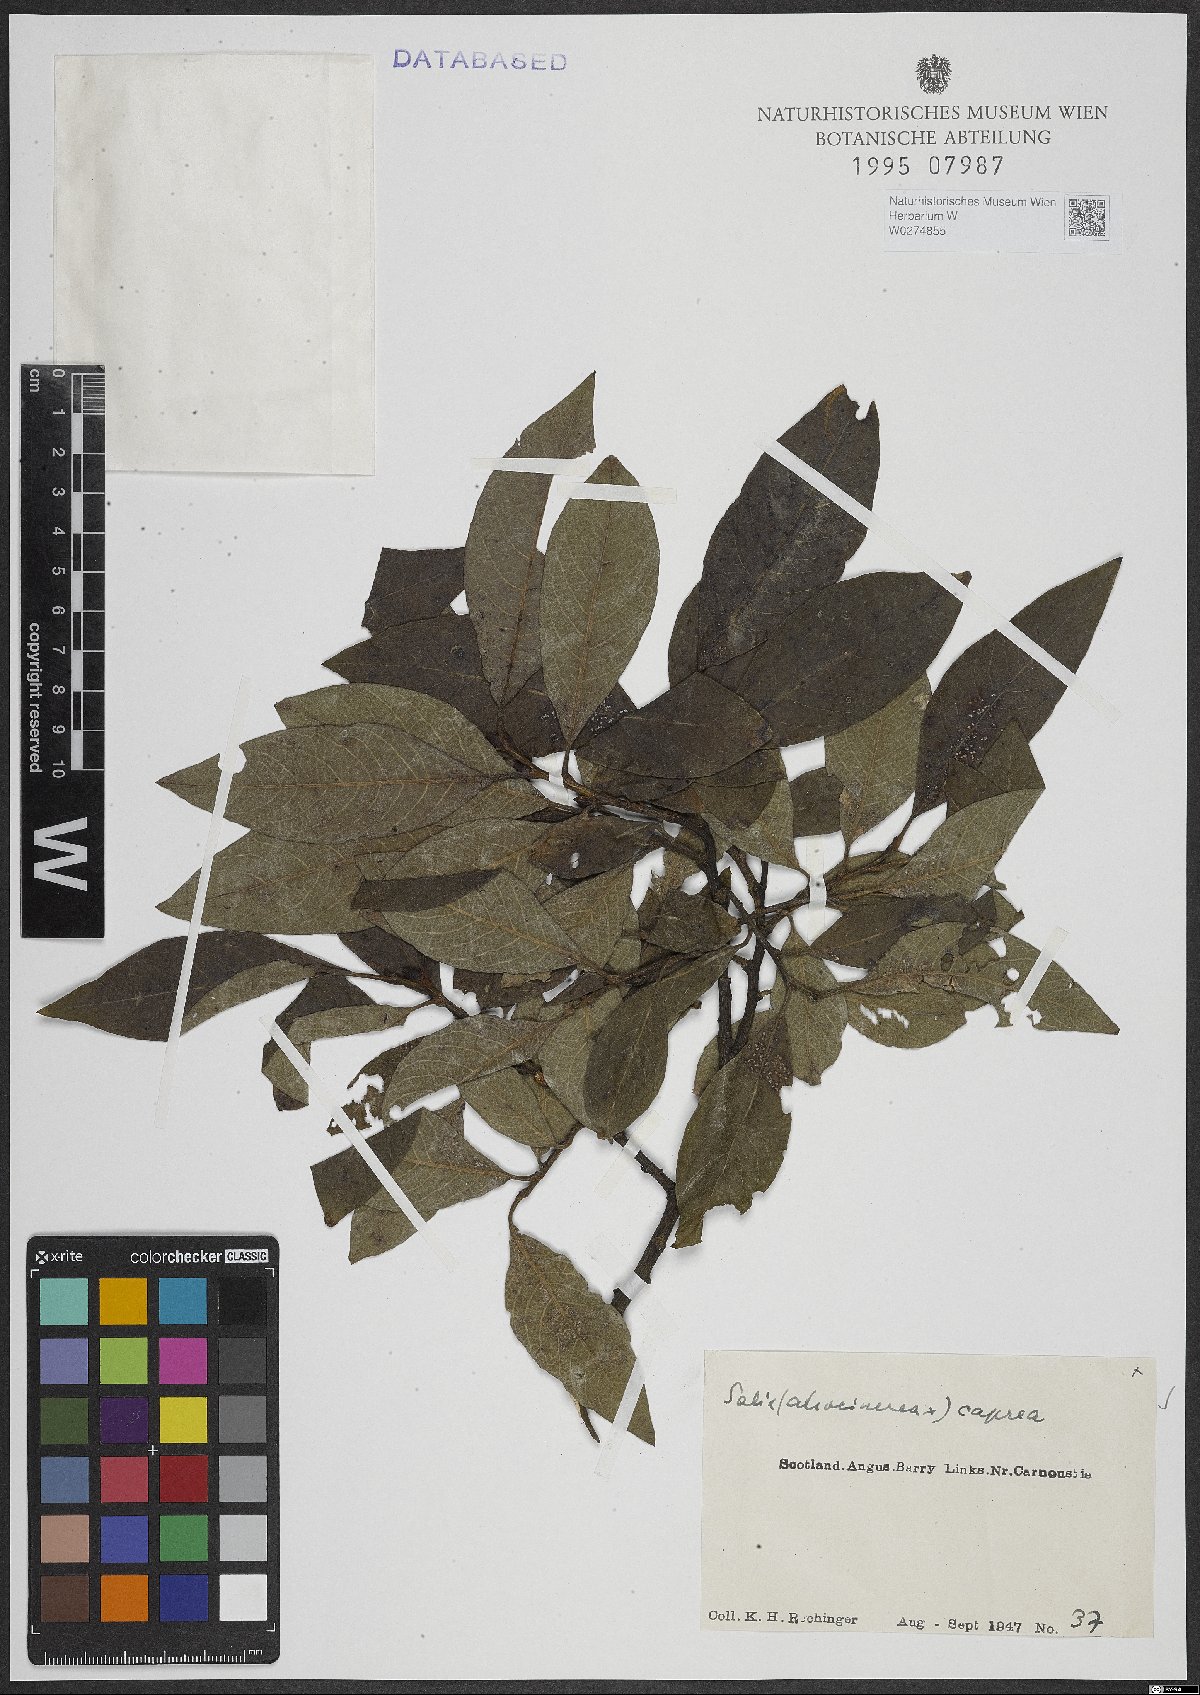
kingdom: Plantae
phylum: Tracheophyta
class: Magnoliopsida
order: Malpighiales
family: Salicaceae
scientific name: Salicaceae
